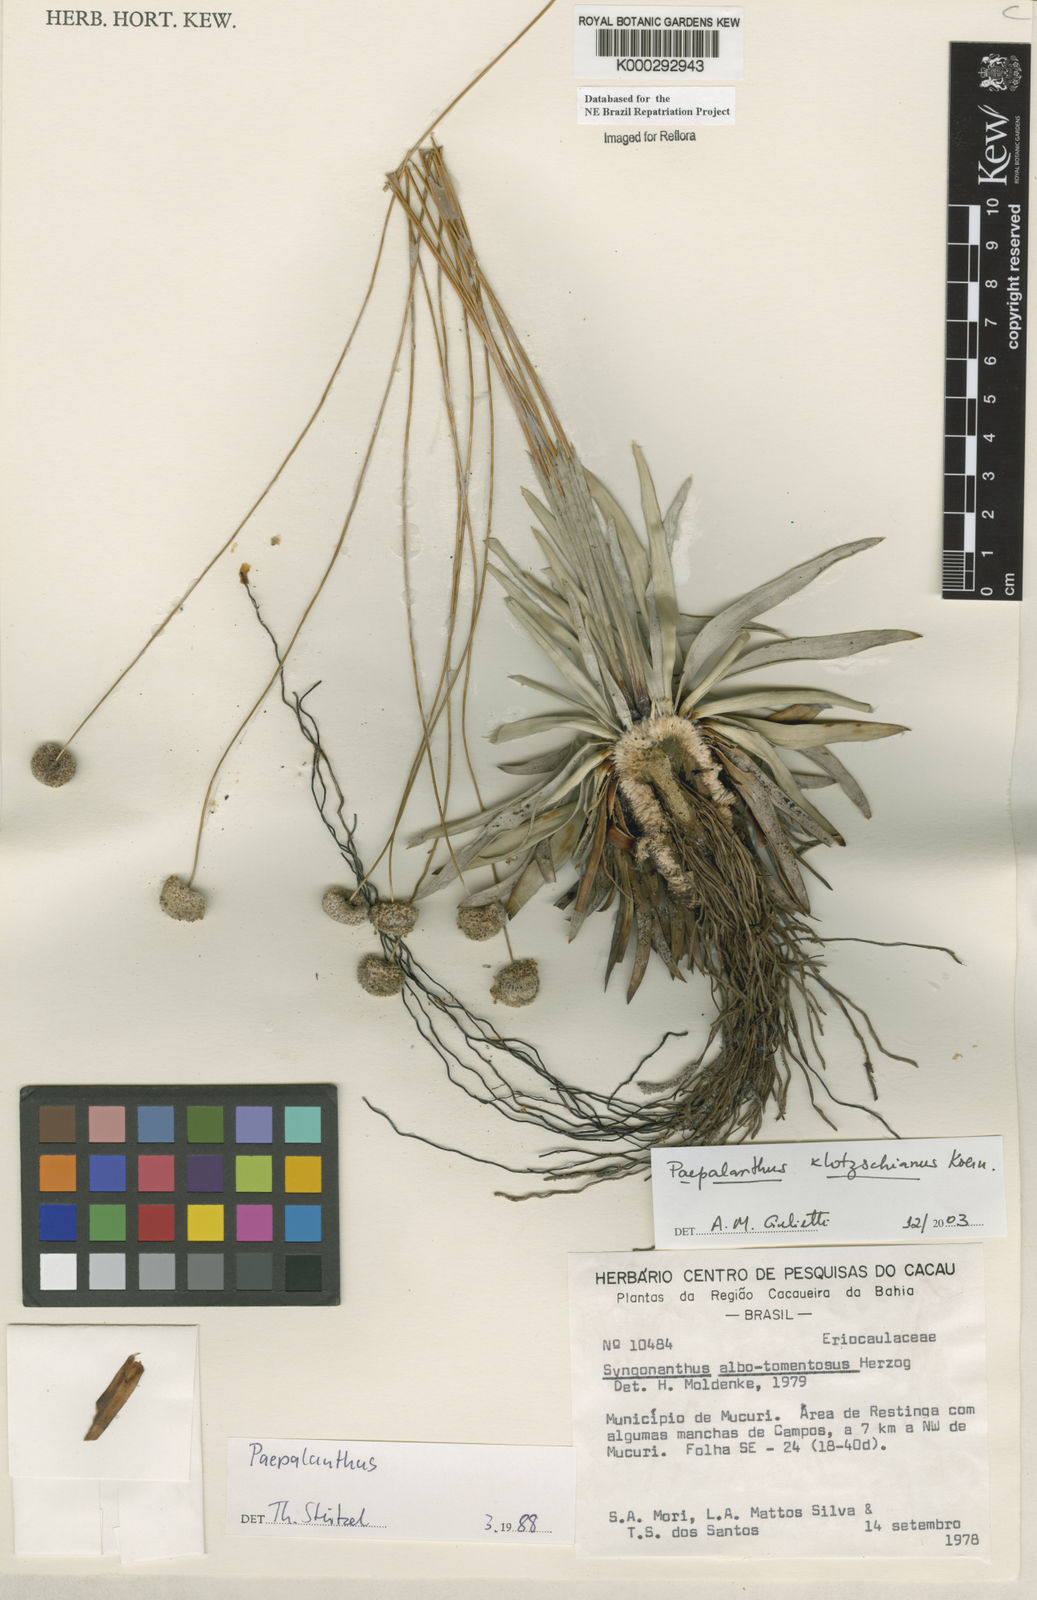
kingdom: Plantae
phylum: Tracheophyta
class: Liliopsida
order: Poales
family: Eriocaulaceae
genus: Paepalanthus
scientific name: Paepalanthus
